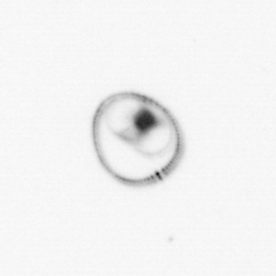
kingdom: Chromista
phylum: Myzozoa
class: Dinophyceae
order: Noctilucales
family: Noctilucaceae
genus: Noctiluca
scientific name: Noctiluca scintillans
